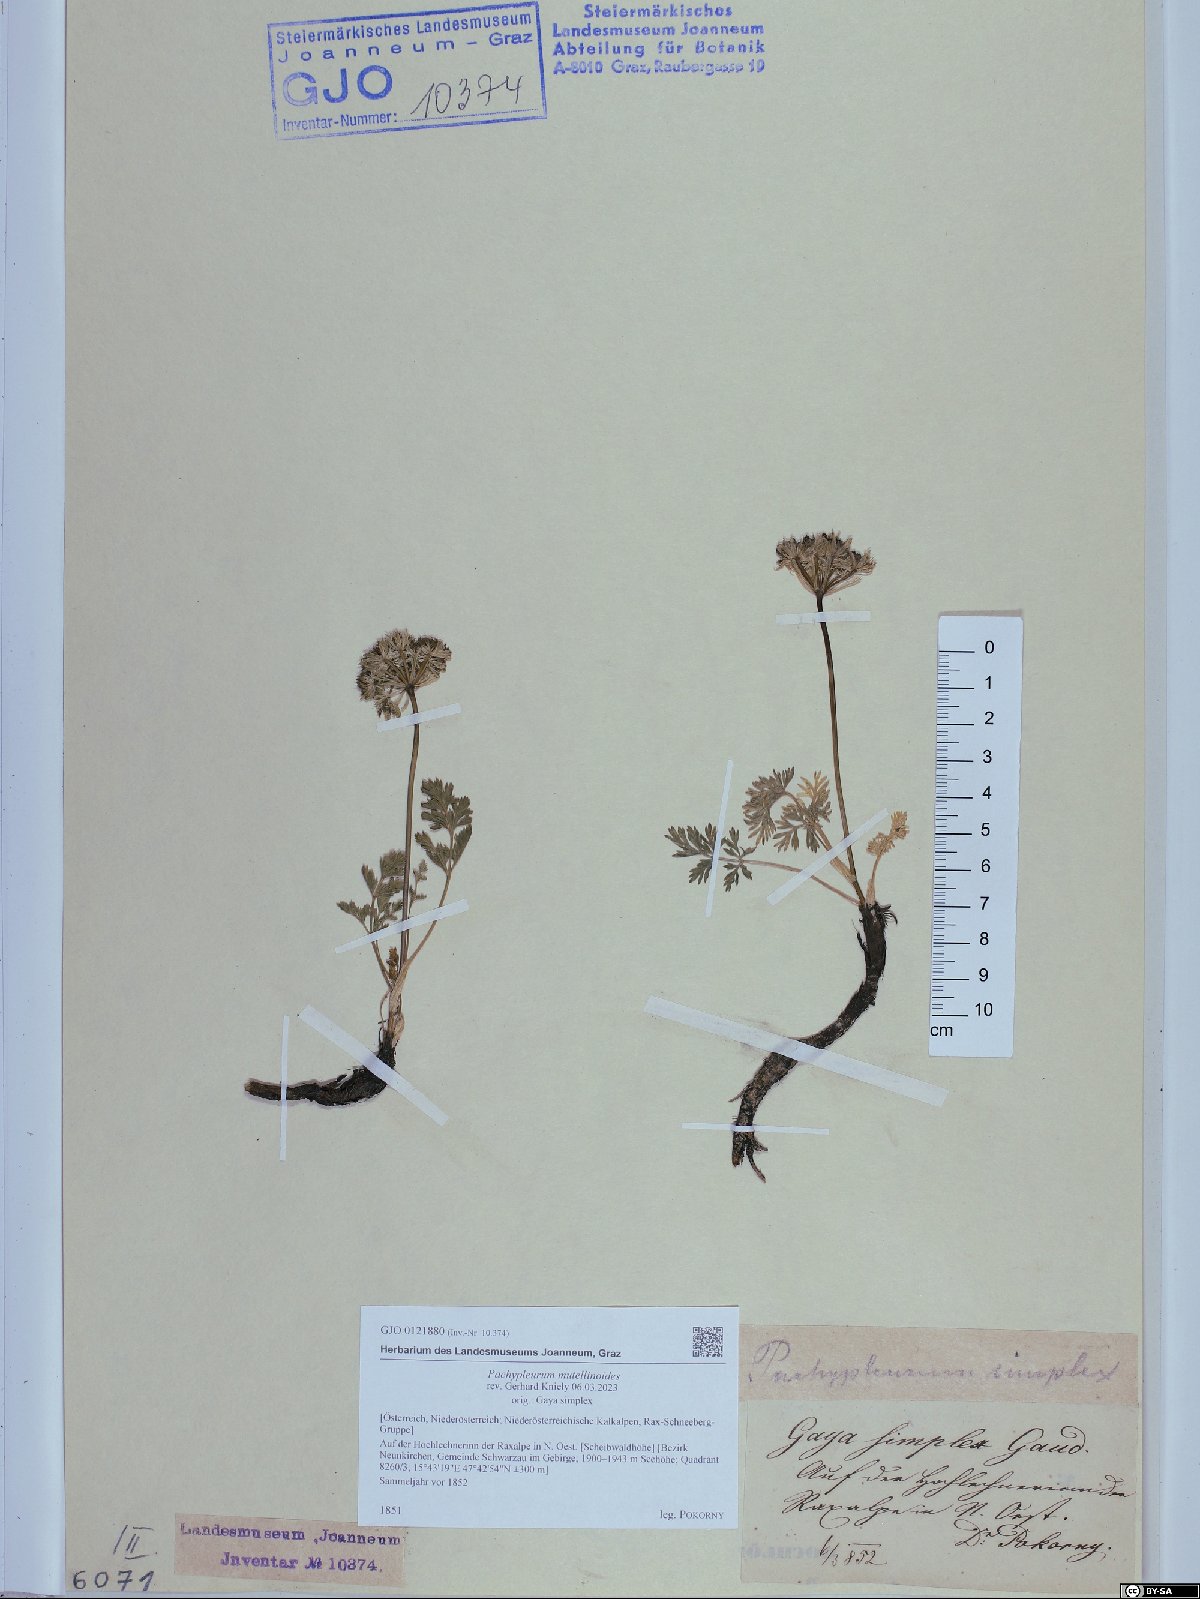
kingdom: Plantae
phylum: Tracheophyta
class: Magnoliopsida
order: Apiales
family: Apiaceae
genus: Pachypleurum
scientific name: Pachypleurum mutellinoides
